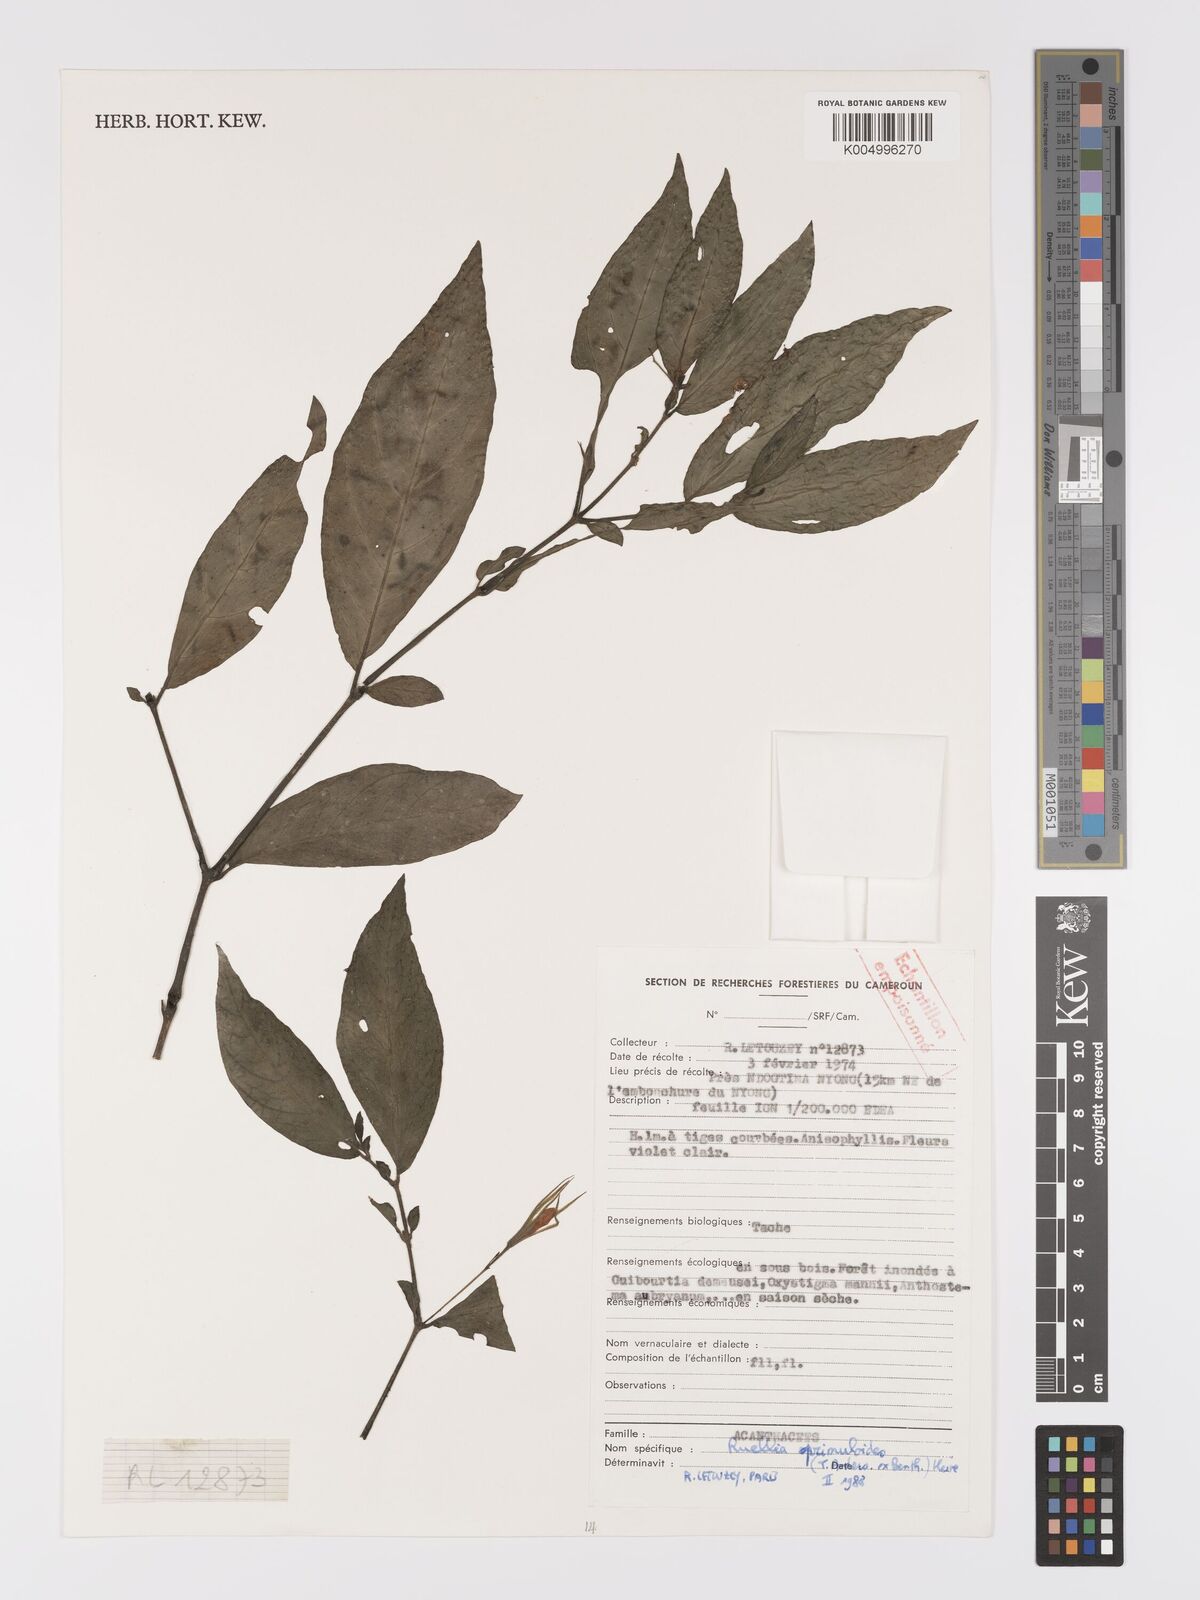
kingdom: Plantae
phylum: Tracheophyta
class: Magnoliopsida
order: Lamiales
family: Acanthaceae
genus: Ruellia
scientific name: Ruellia primuloides
